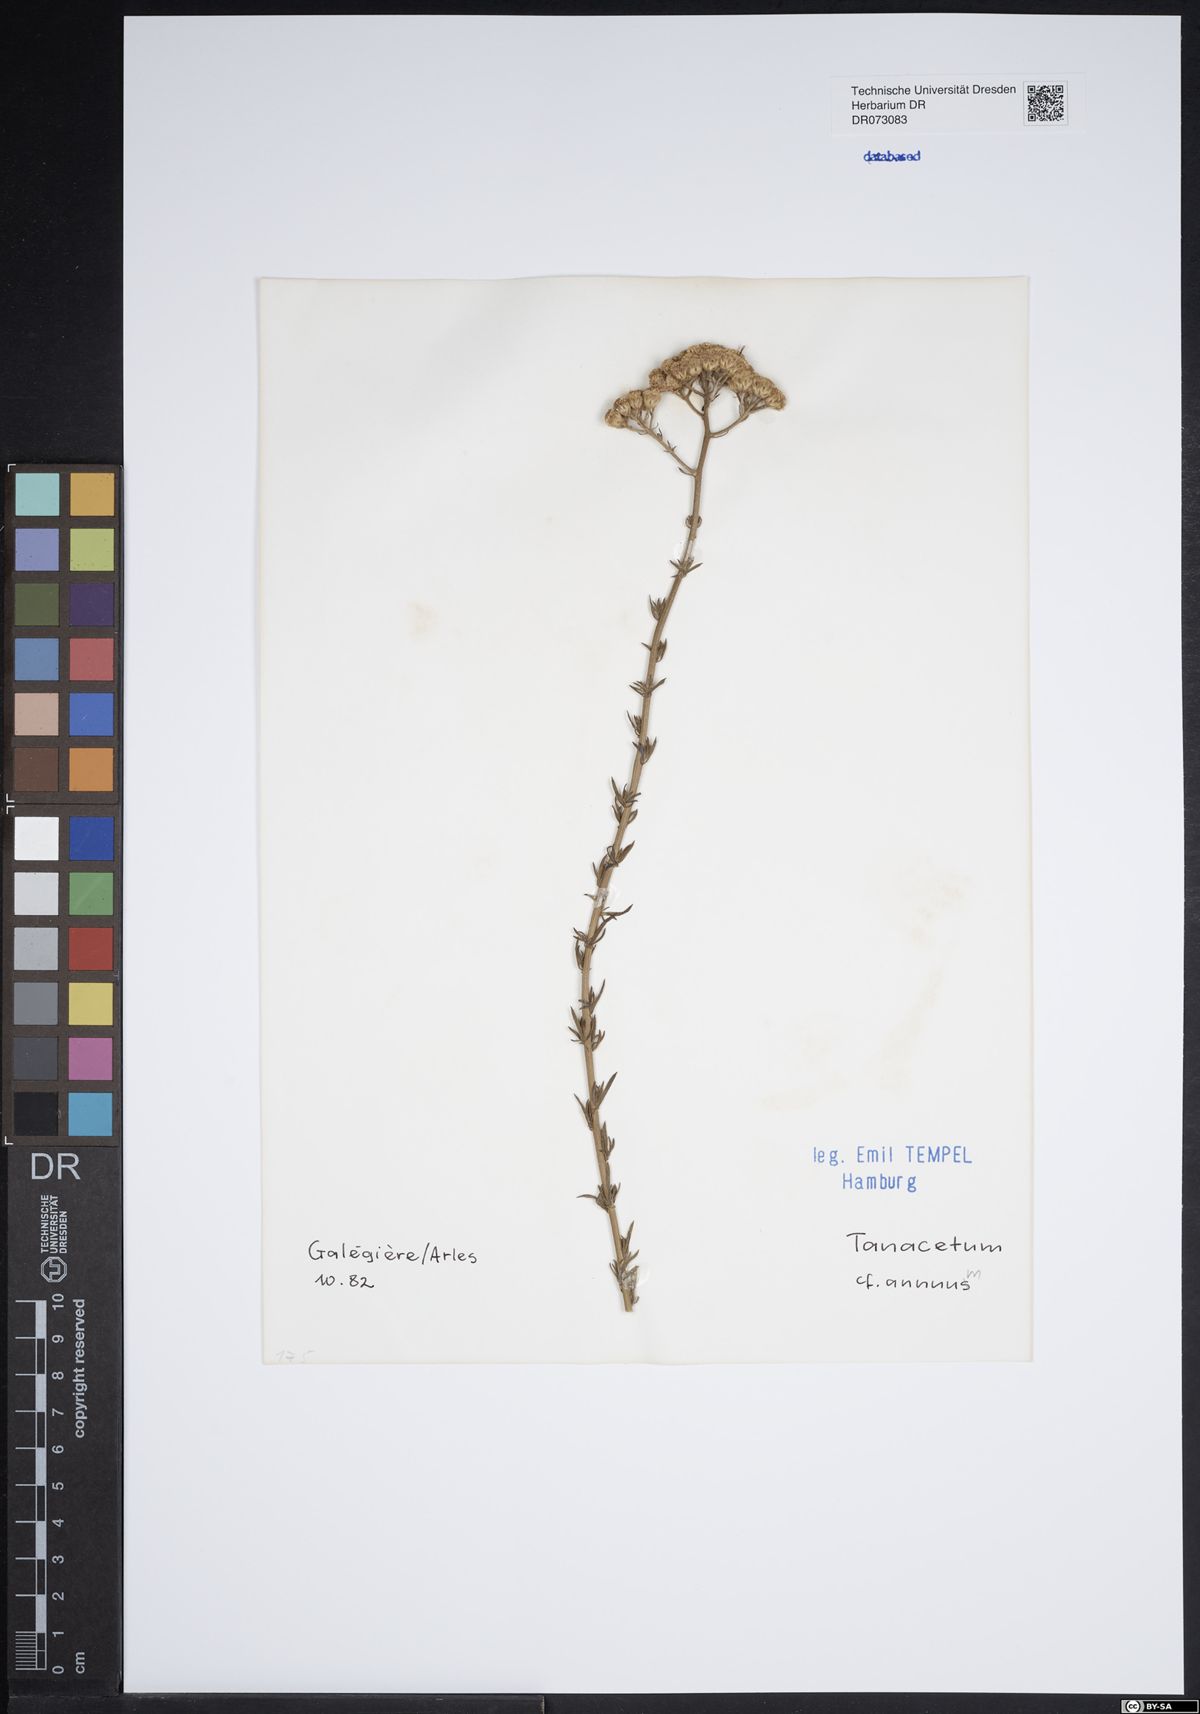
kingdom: Plantae
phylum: Tracheophyta
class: Magnoliopsida
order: Asterales
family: Asteraceae
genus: Centaurea
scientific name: Centaurea calcitrapa
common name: Red star-thistle
